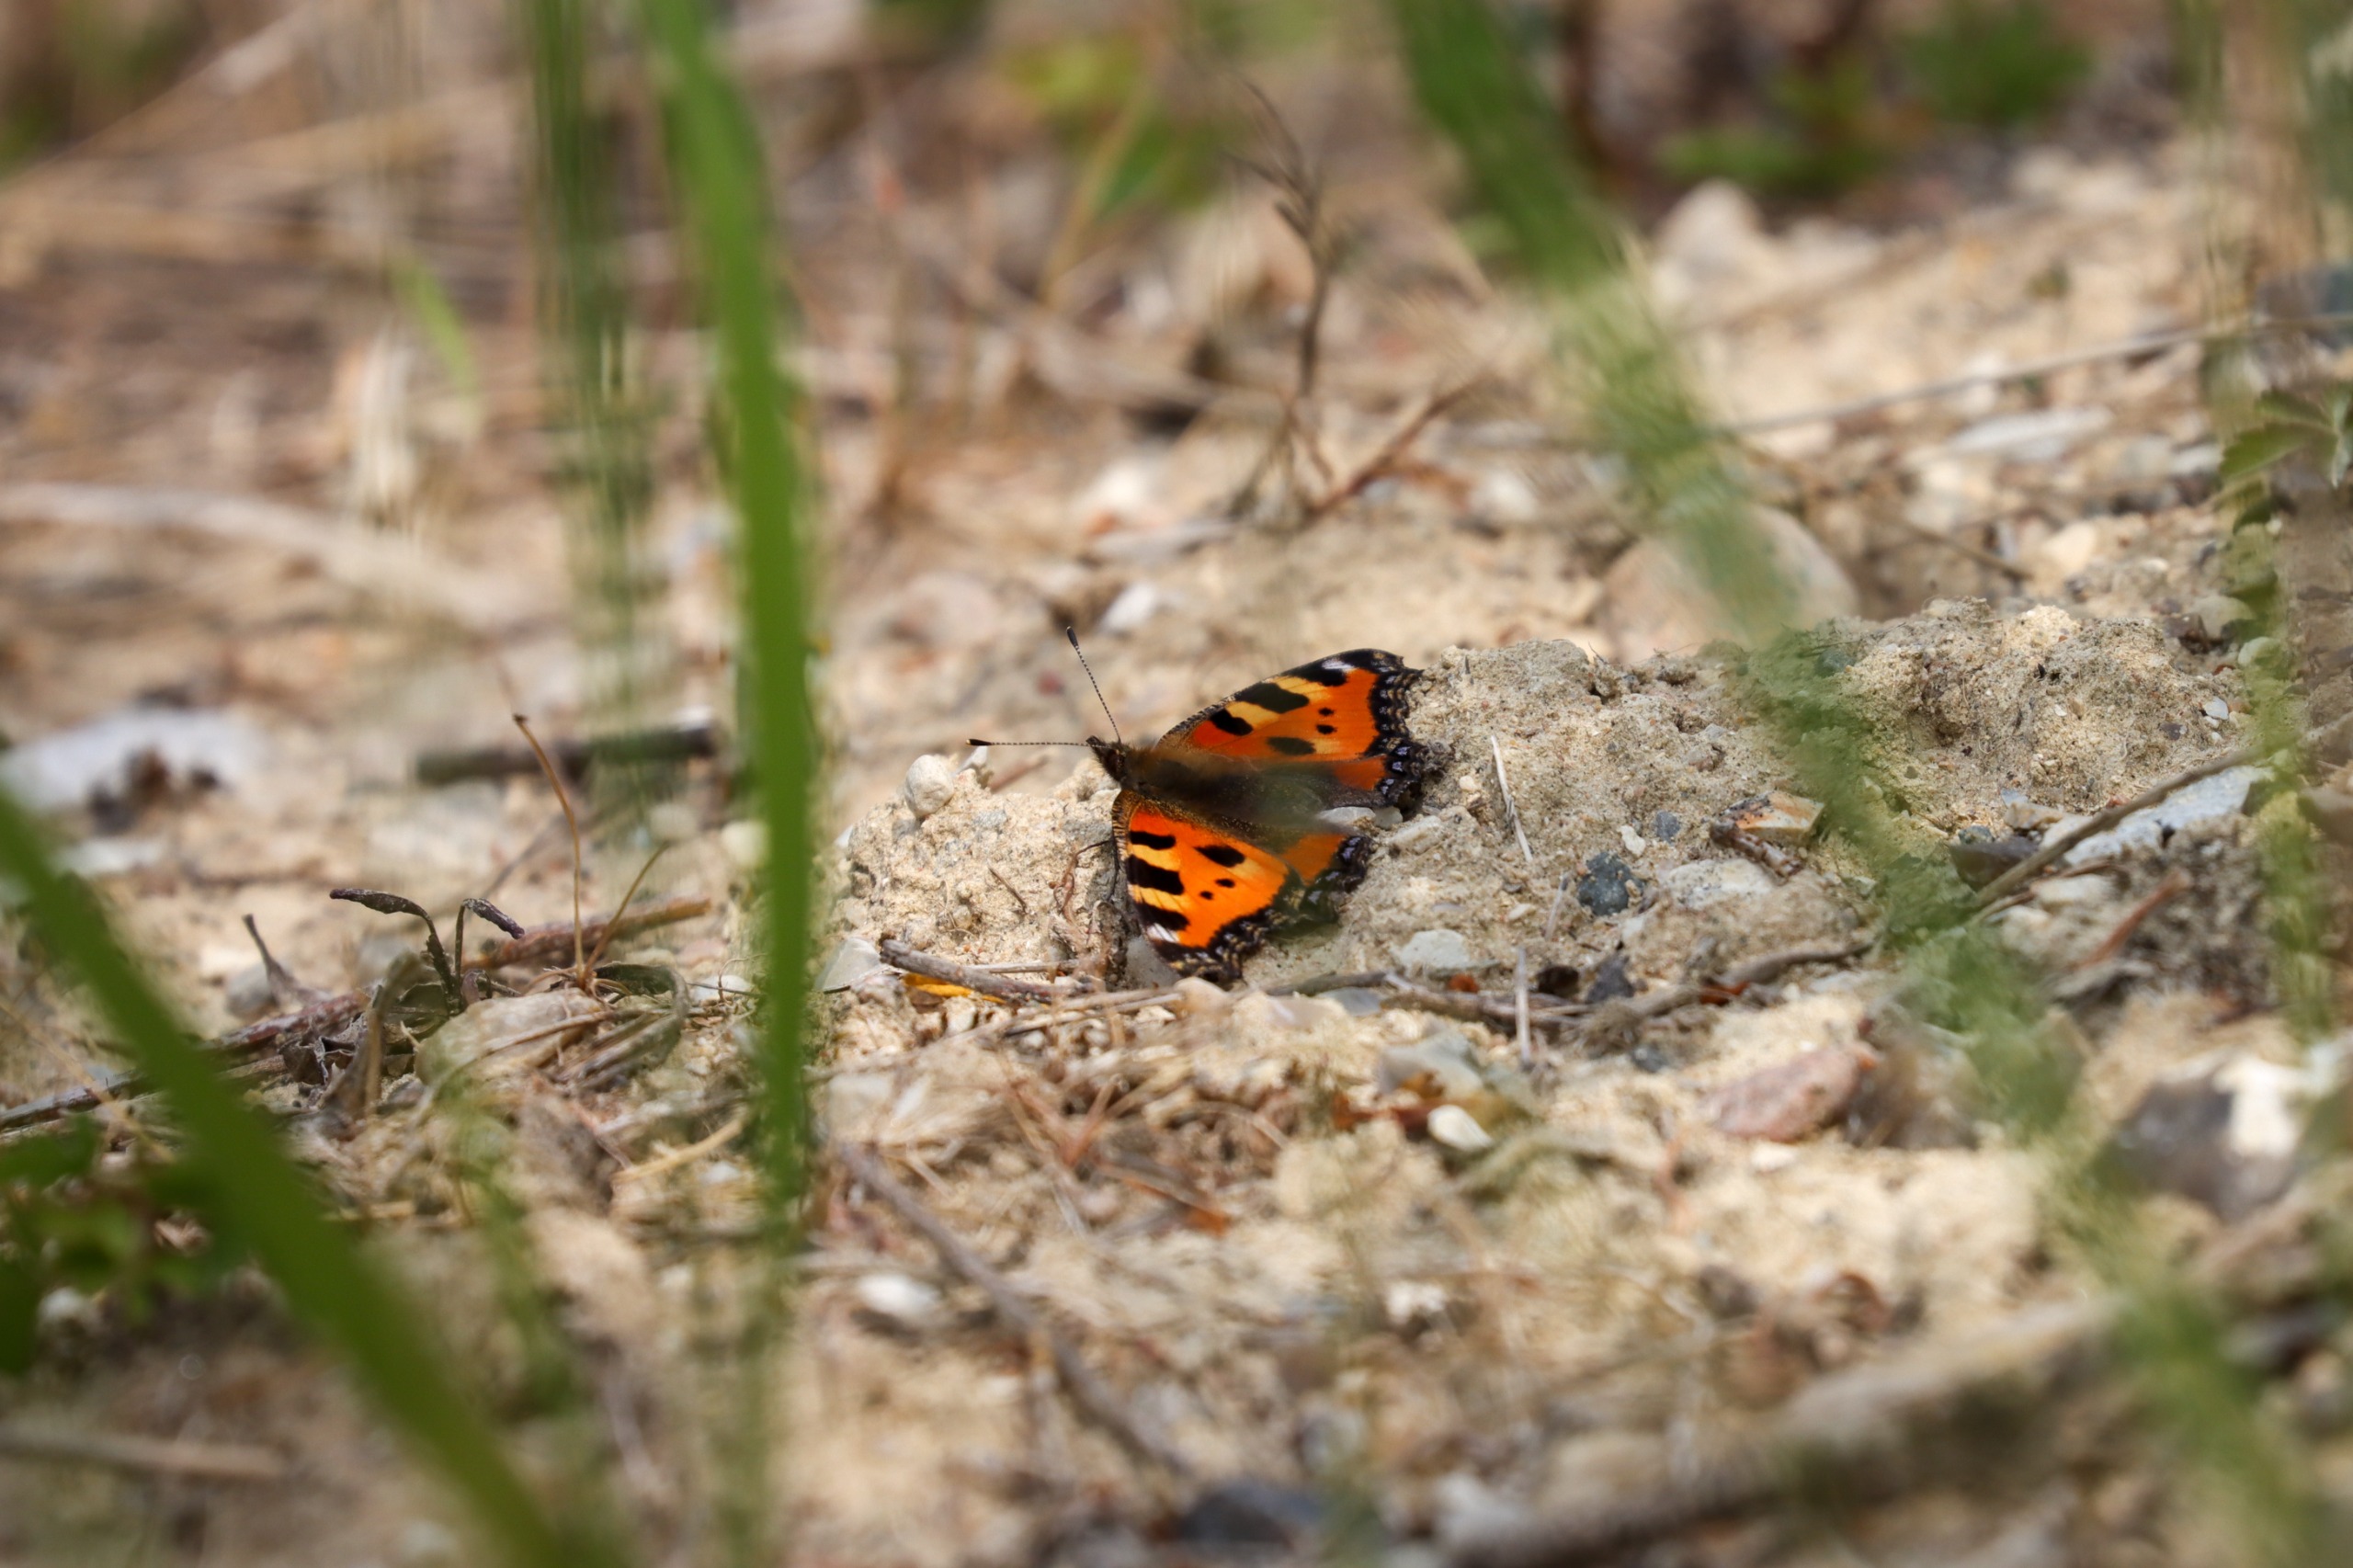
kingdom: Animalia
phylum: Arthropoda
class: Insecta
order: Lepidoptera
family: Nymphalidae
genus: Aglais
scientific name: Aglais urticae
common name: Nældens takvinge
